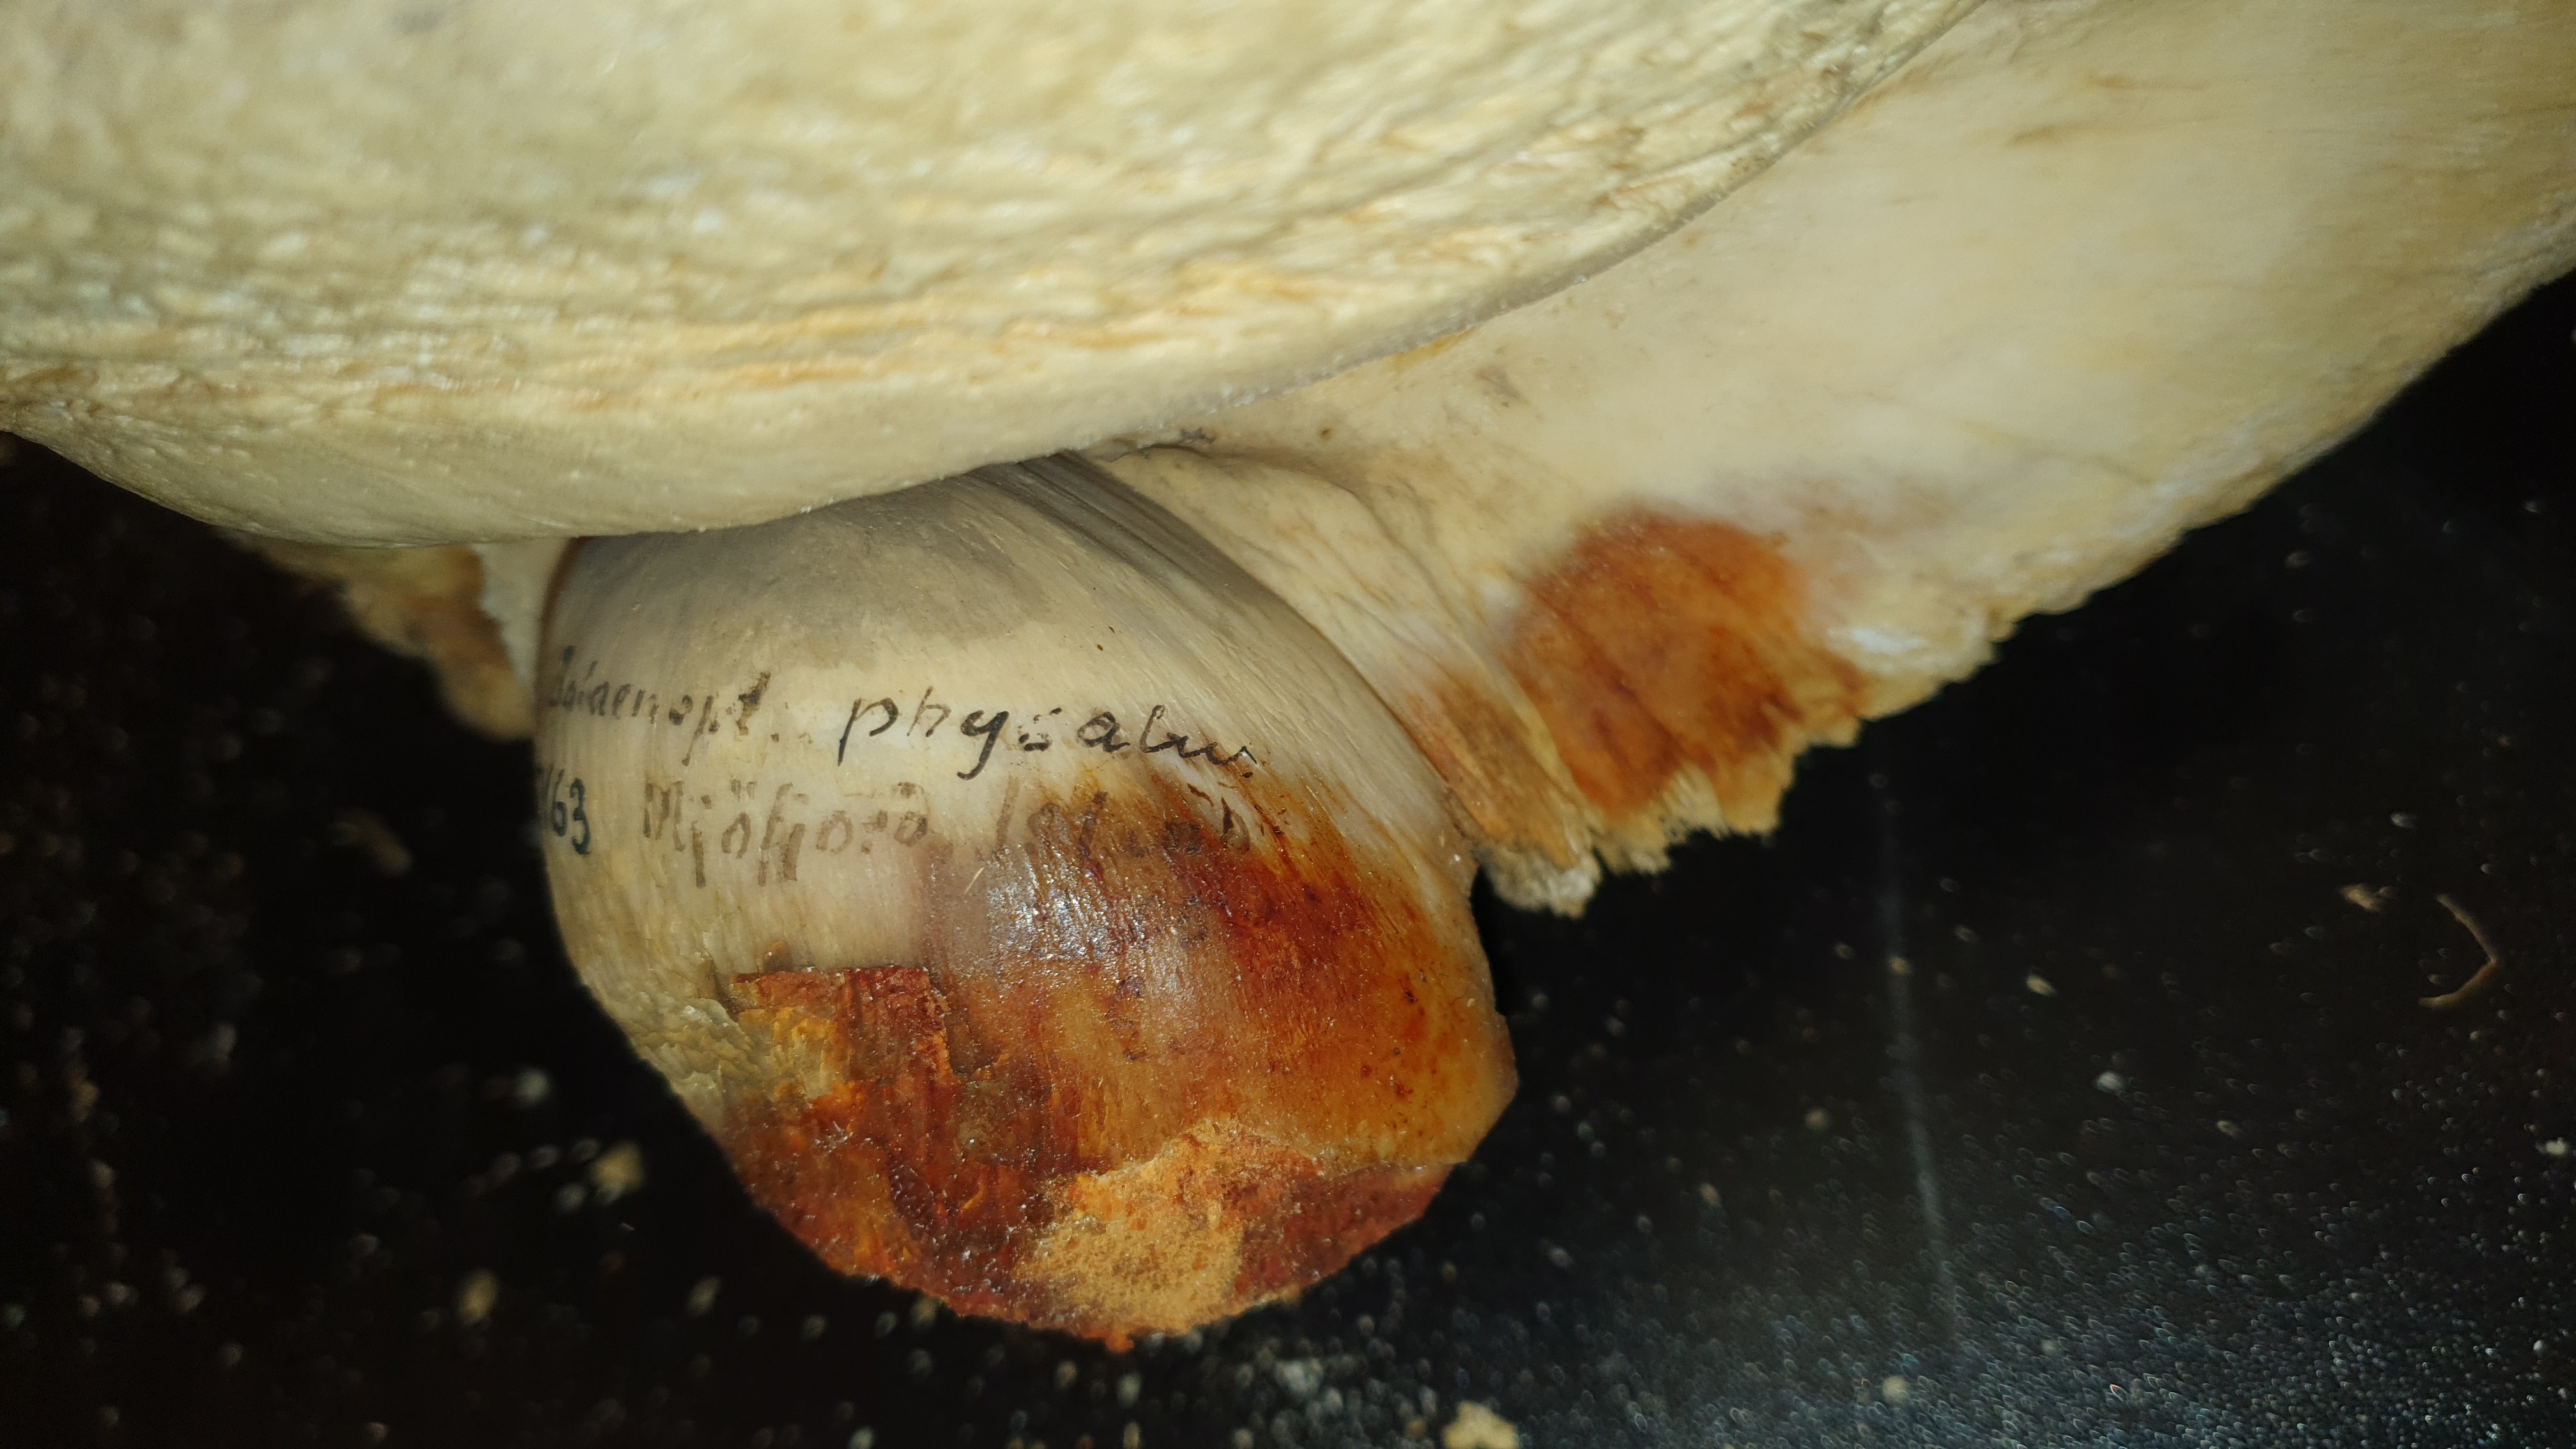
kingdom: Animalia
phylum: Chordata
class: Mammalia
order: Cetacea
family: Balaenopteridae
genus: Balaenoptera
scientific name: Balaenoptera physalus
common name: Fin whale
